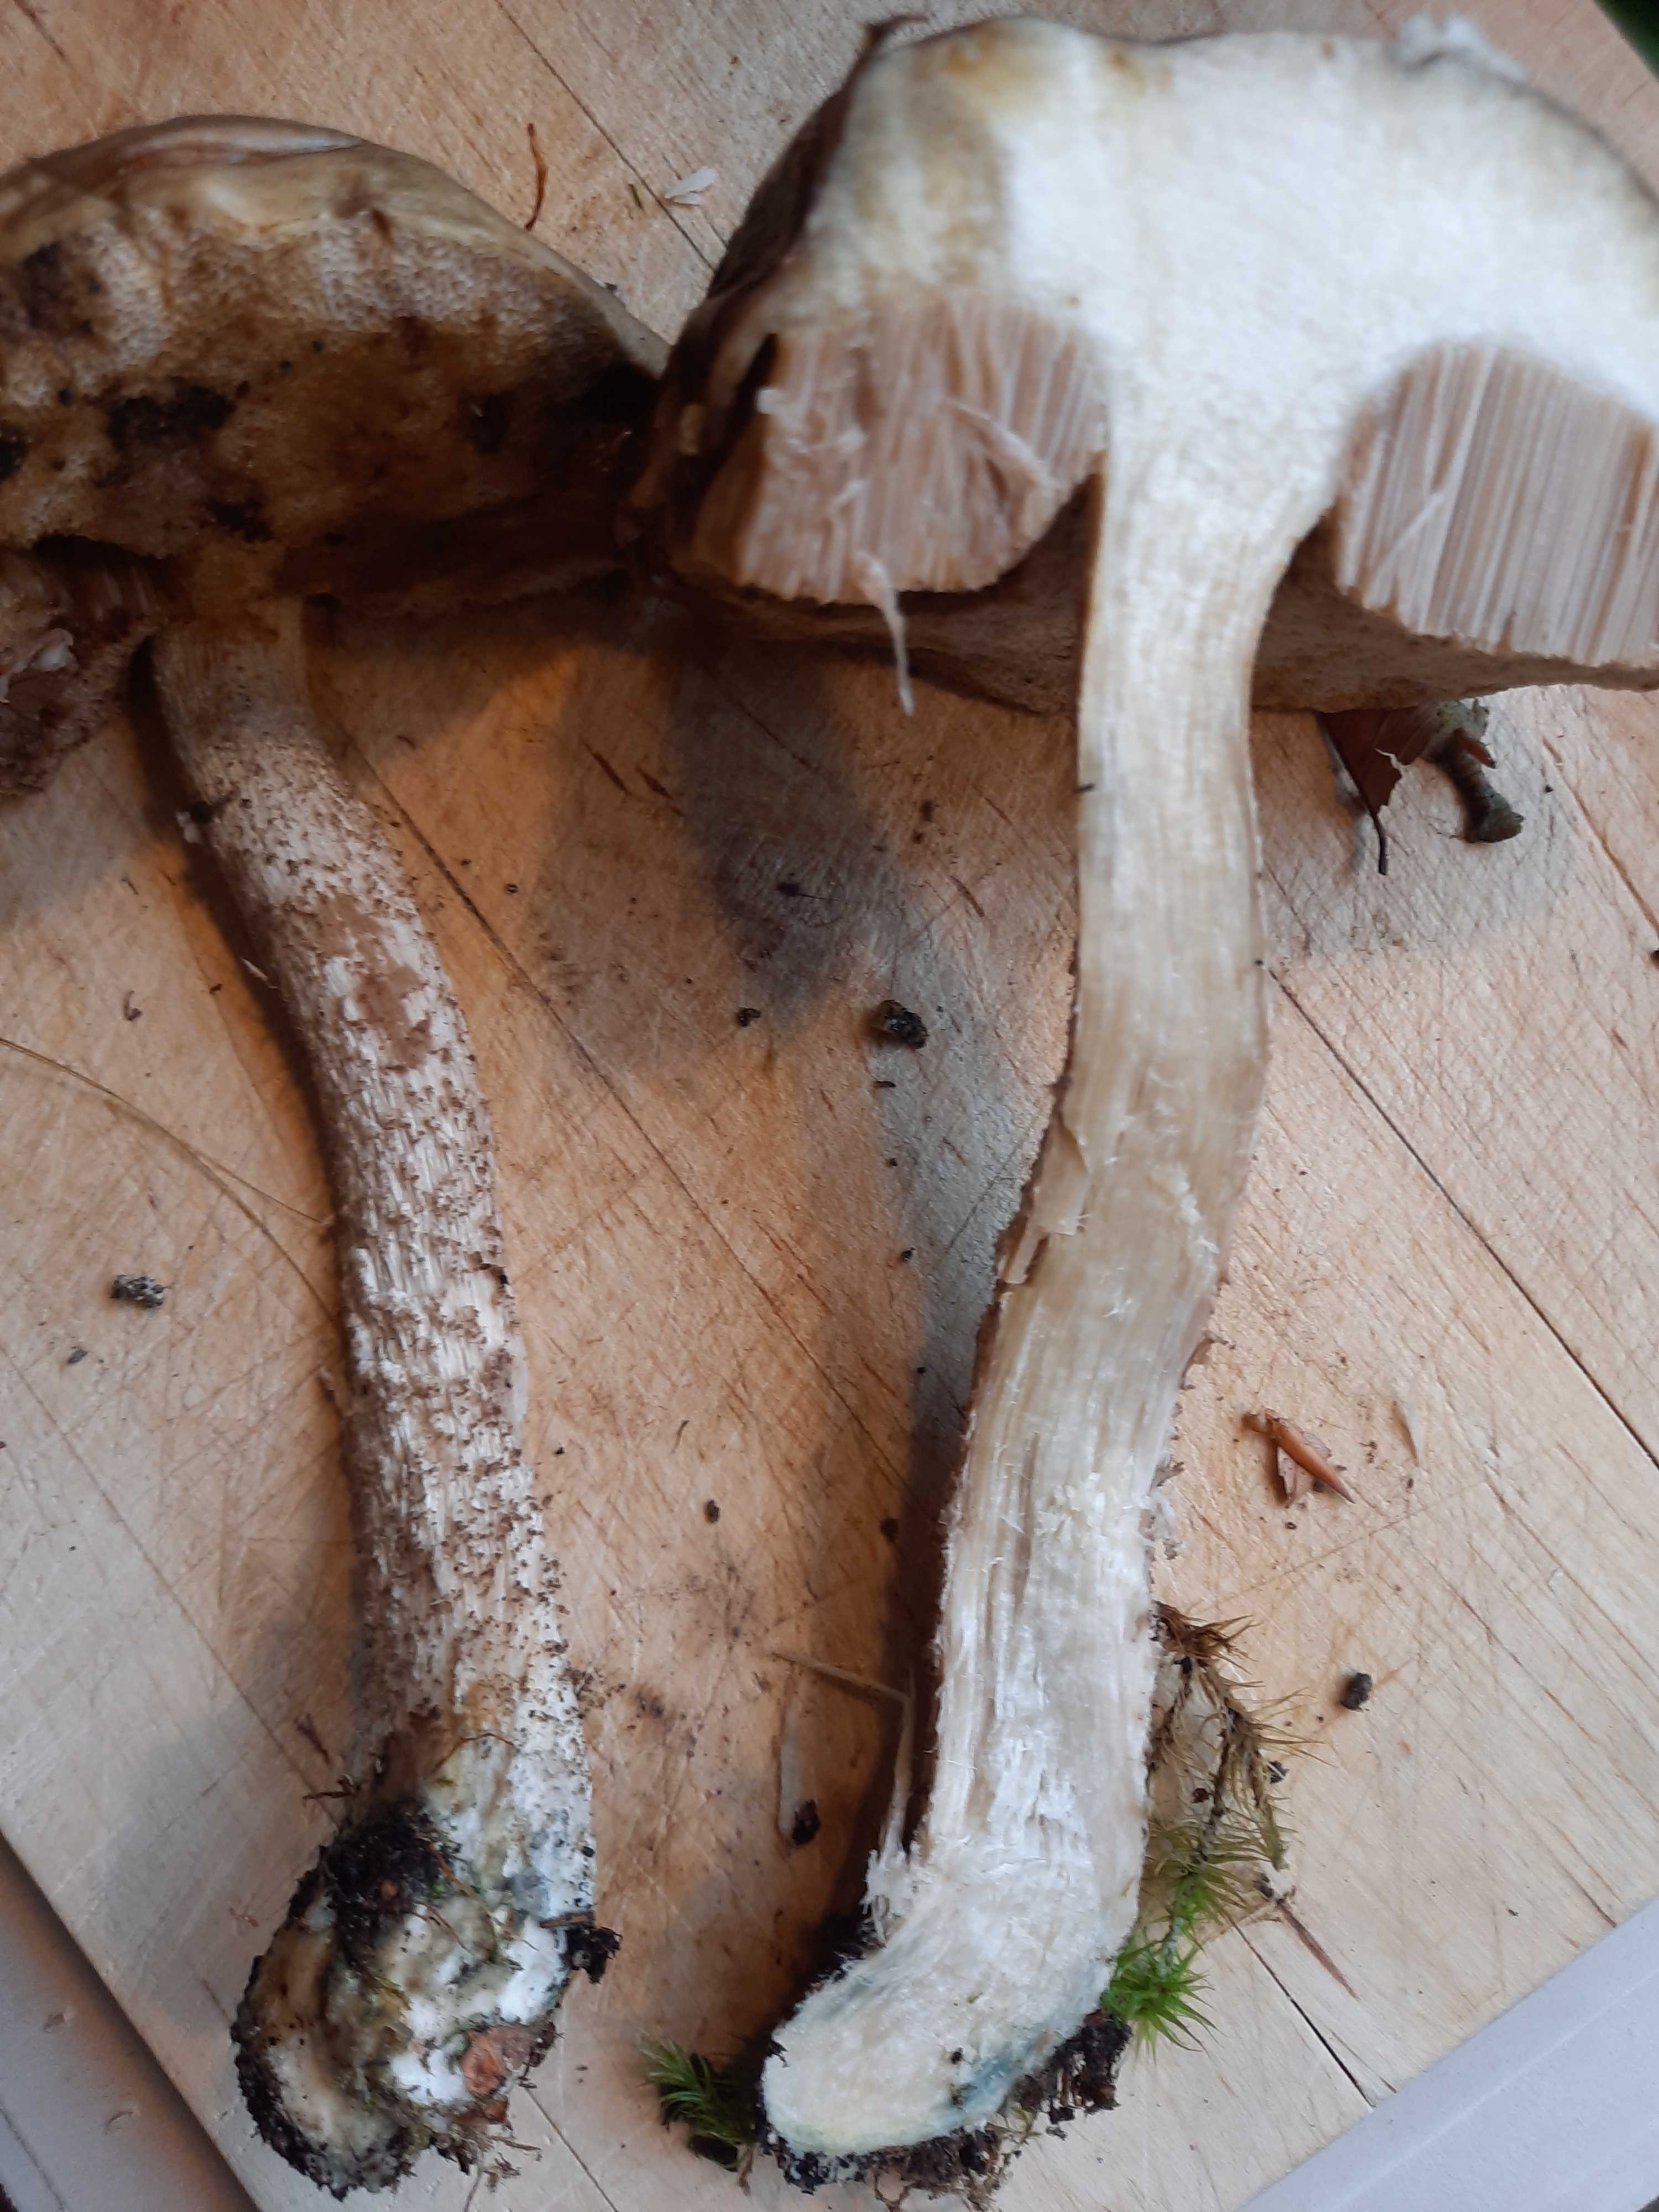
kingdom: Fungi
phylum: Basidiomycota
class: Agaricomycetes
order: Boletales
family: Boletaceae
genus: Leccinum
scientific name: Leccinum cyaneobasileucum
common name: almindelig skælrørhat
